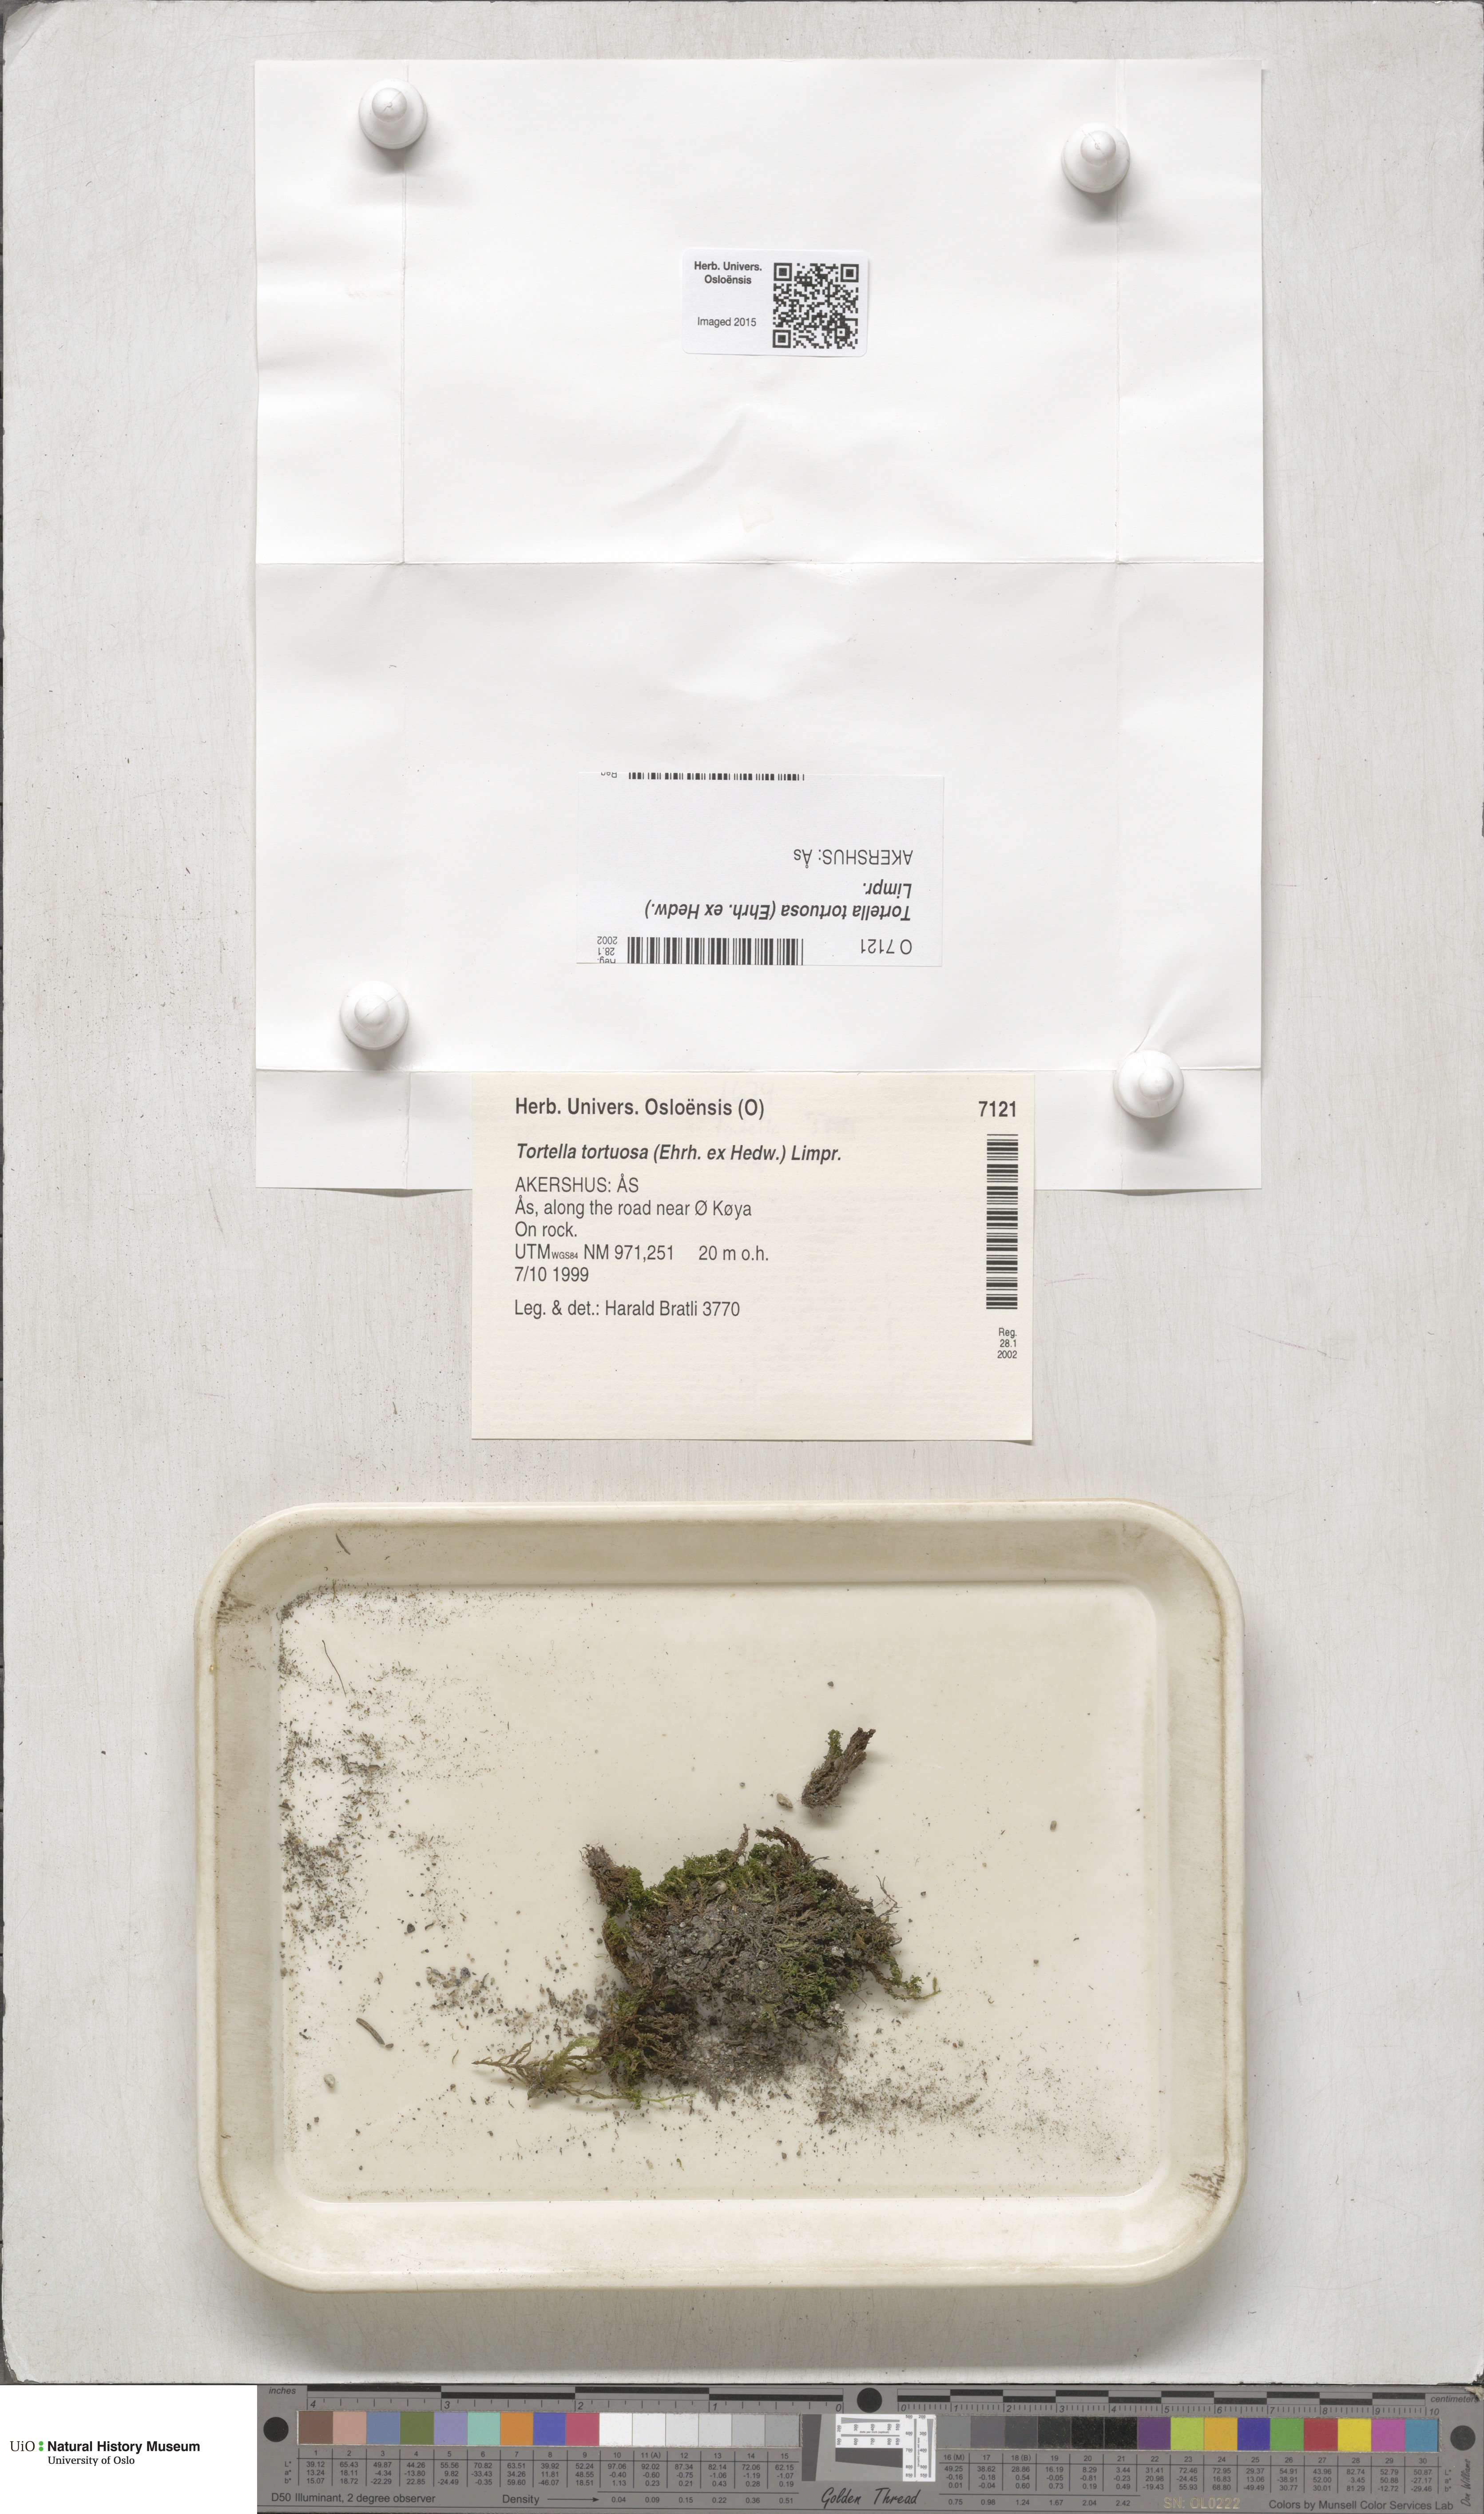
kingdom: Plantae
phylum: Bryophyta
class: Bryopsida
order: Pottiales
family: Pottiaceae
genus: Tortella
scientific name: Tortella tortuosa
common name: Frizzled crisp moss
